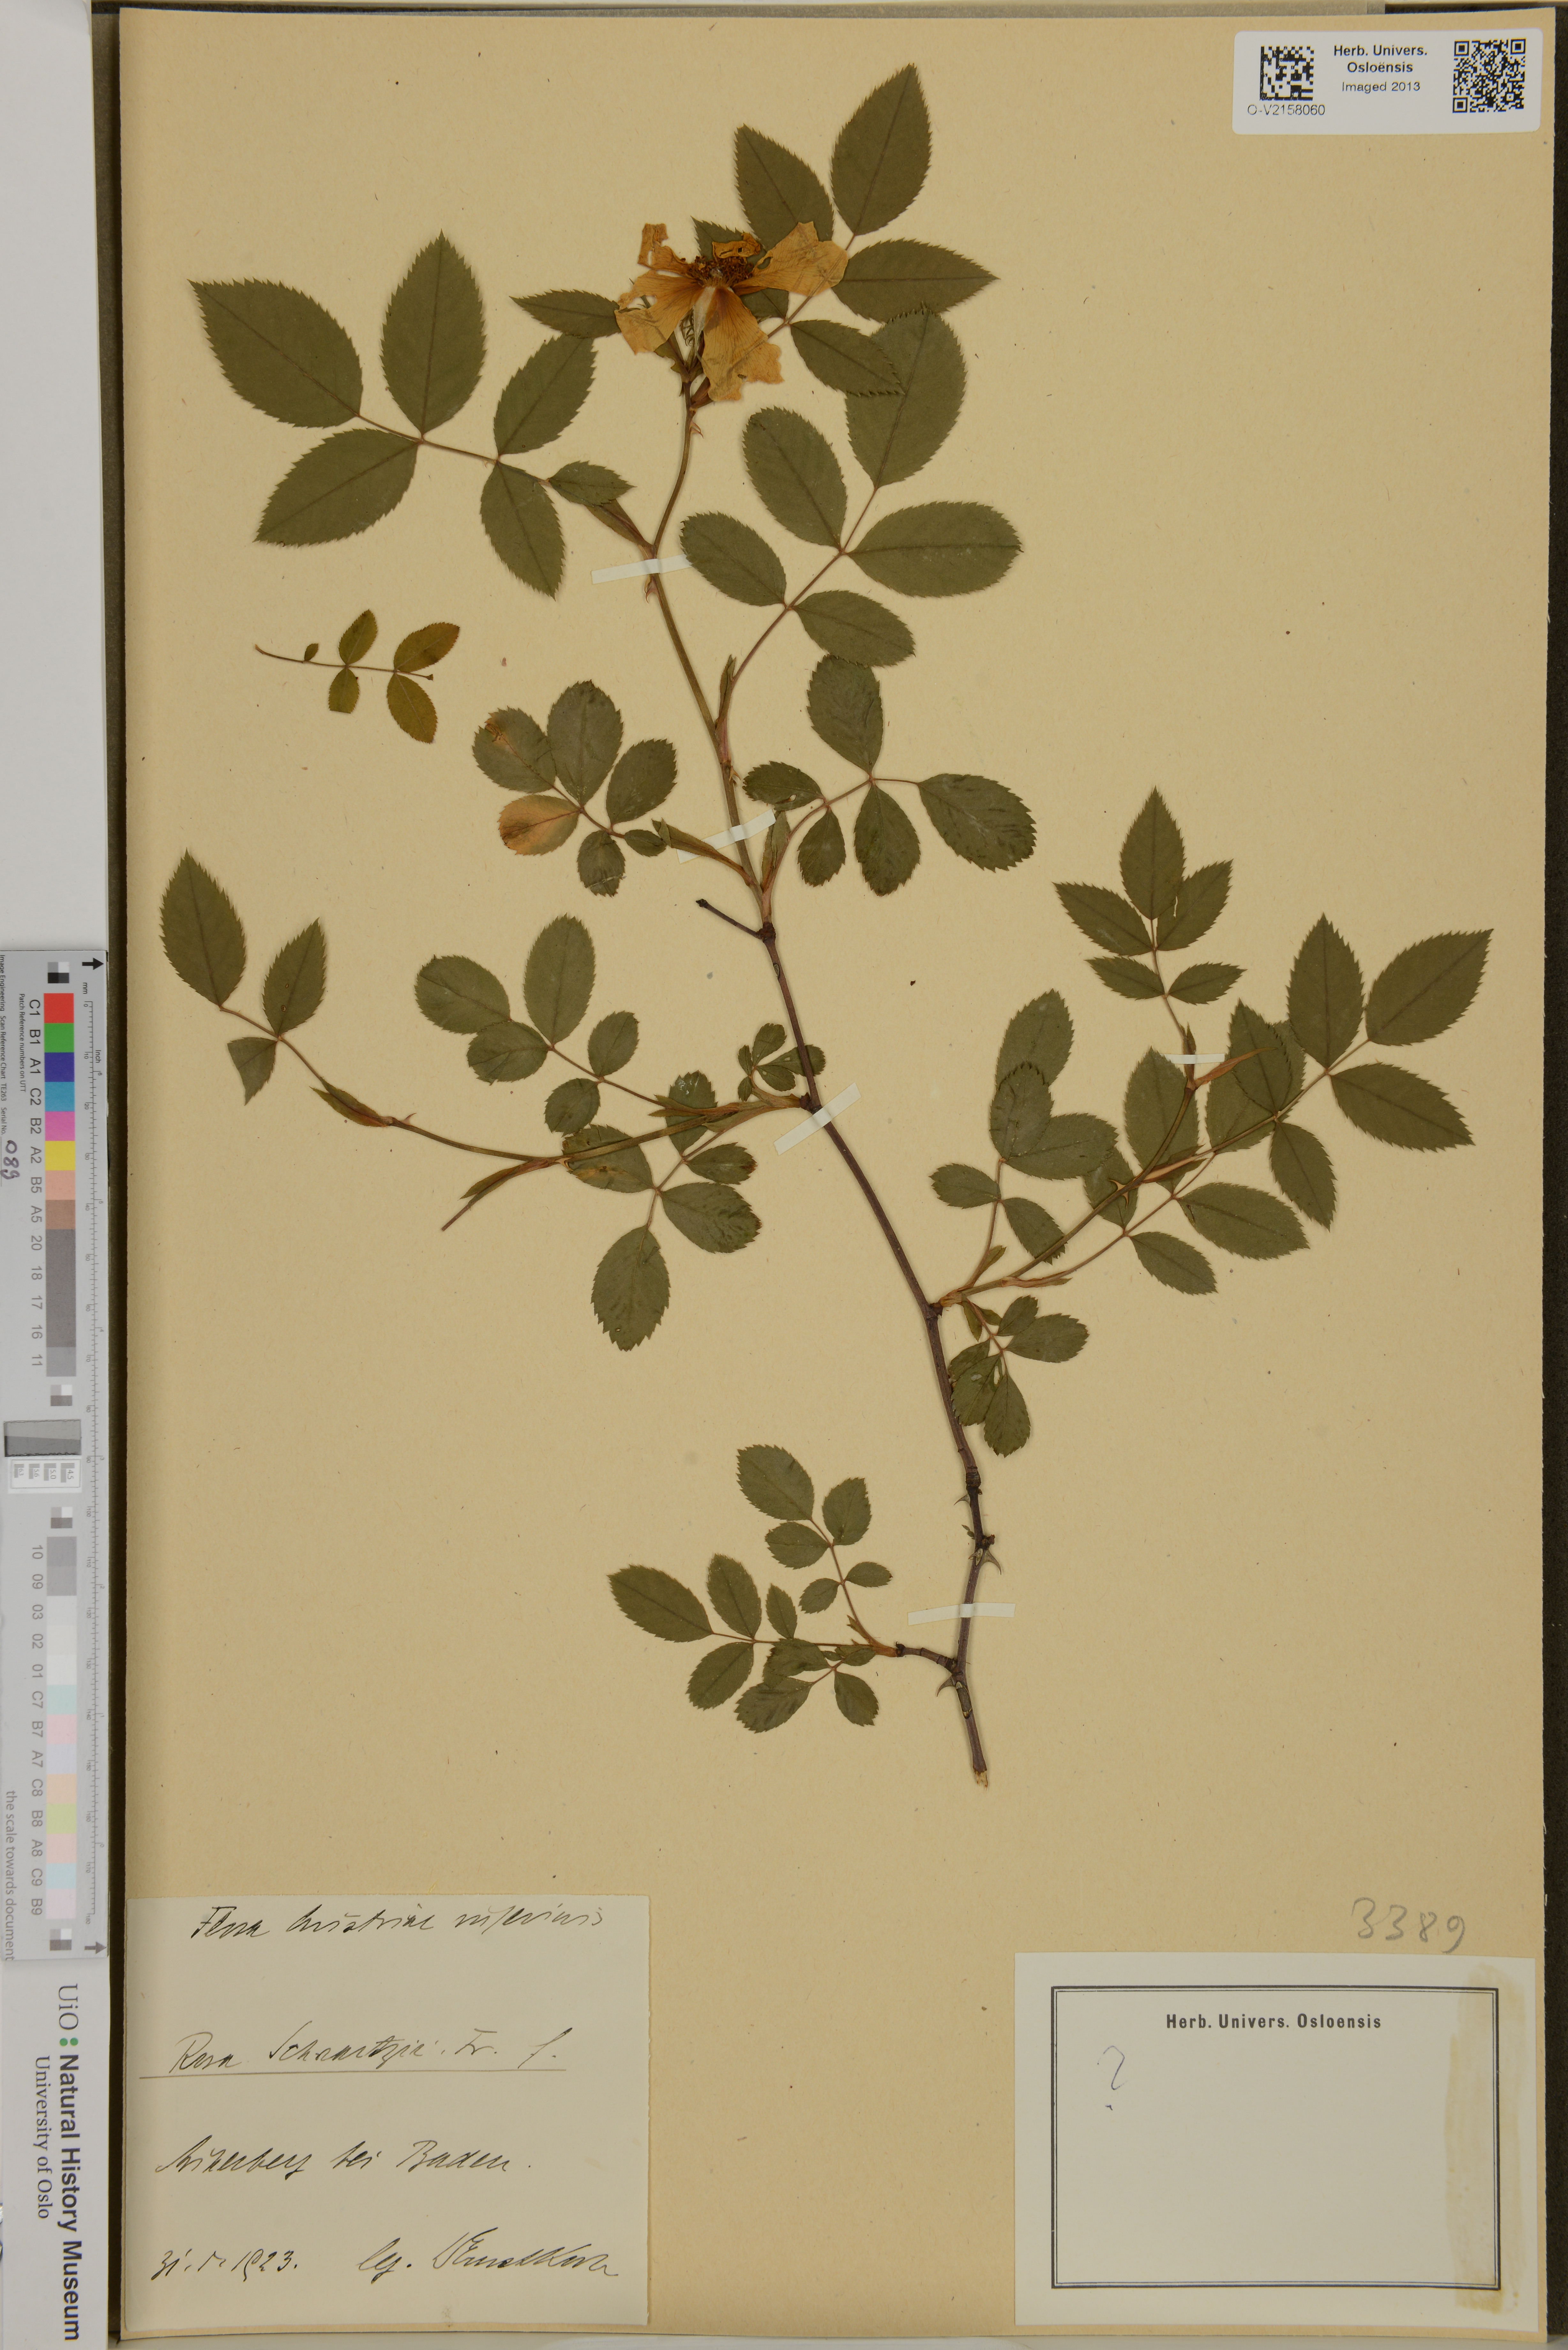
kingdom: Plantae
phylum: Tracheophyta
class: Magnoliopsida
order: Rosales
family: Rosaceae
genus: Rosa
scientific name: Rosa schnetzii
